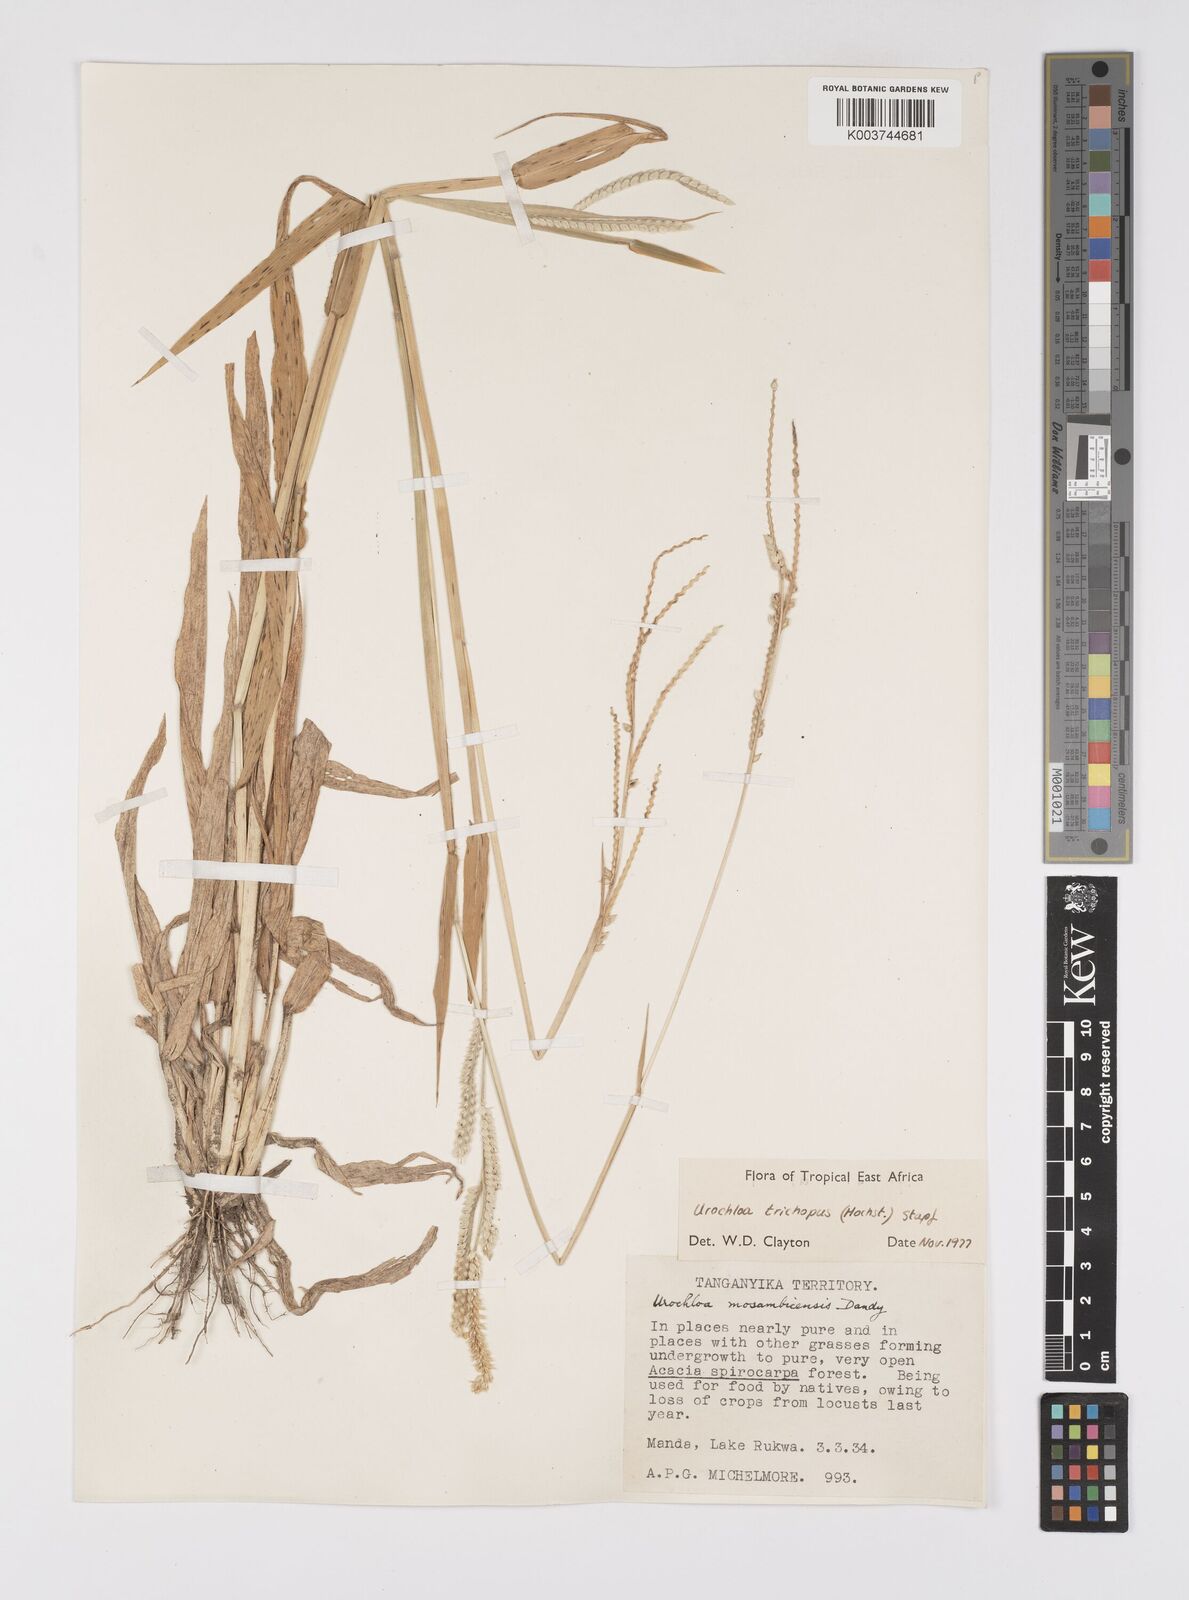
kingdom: Plantae
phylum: Tracheophyta
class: Liliopsida
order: Poales
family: Poaceae
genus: Urochloa
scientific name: Urochloa trichopus
